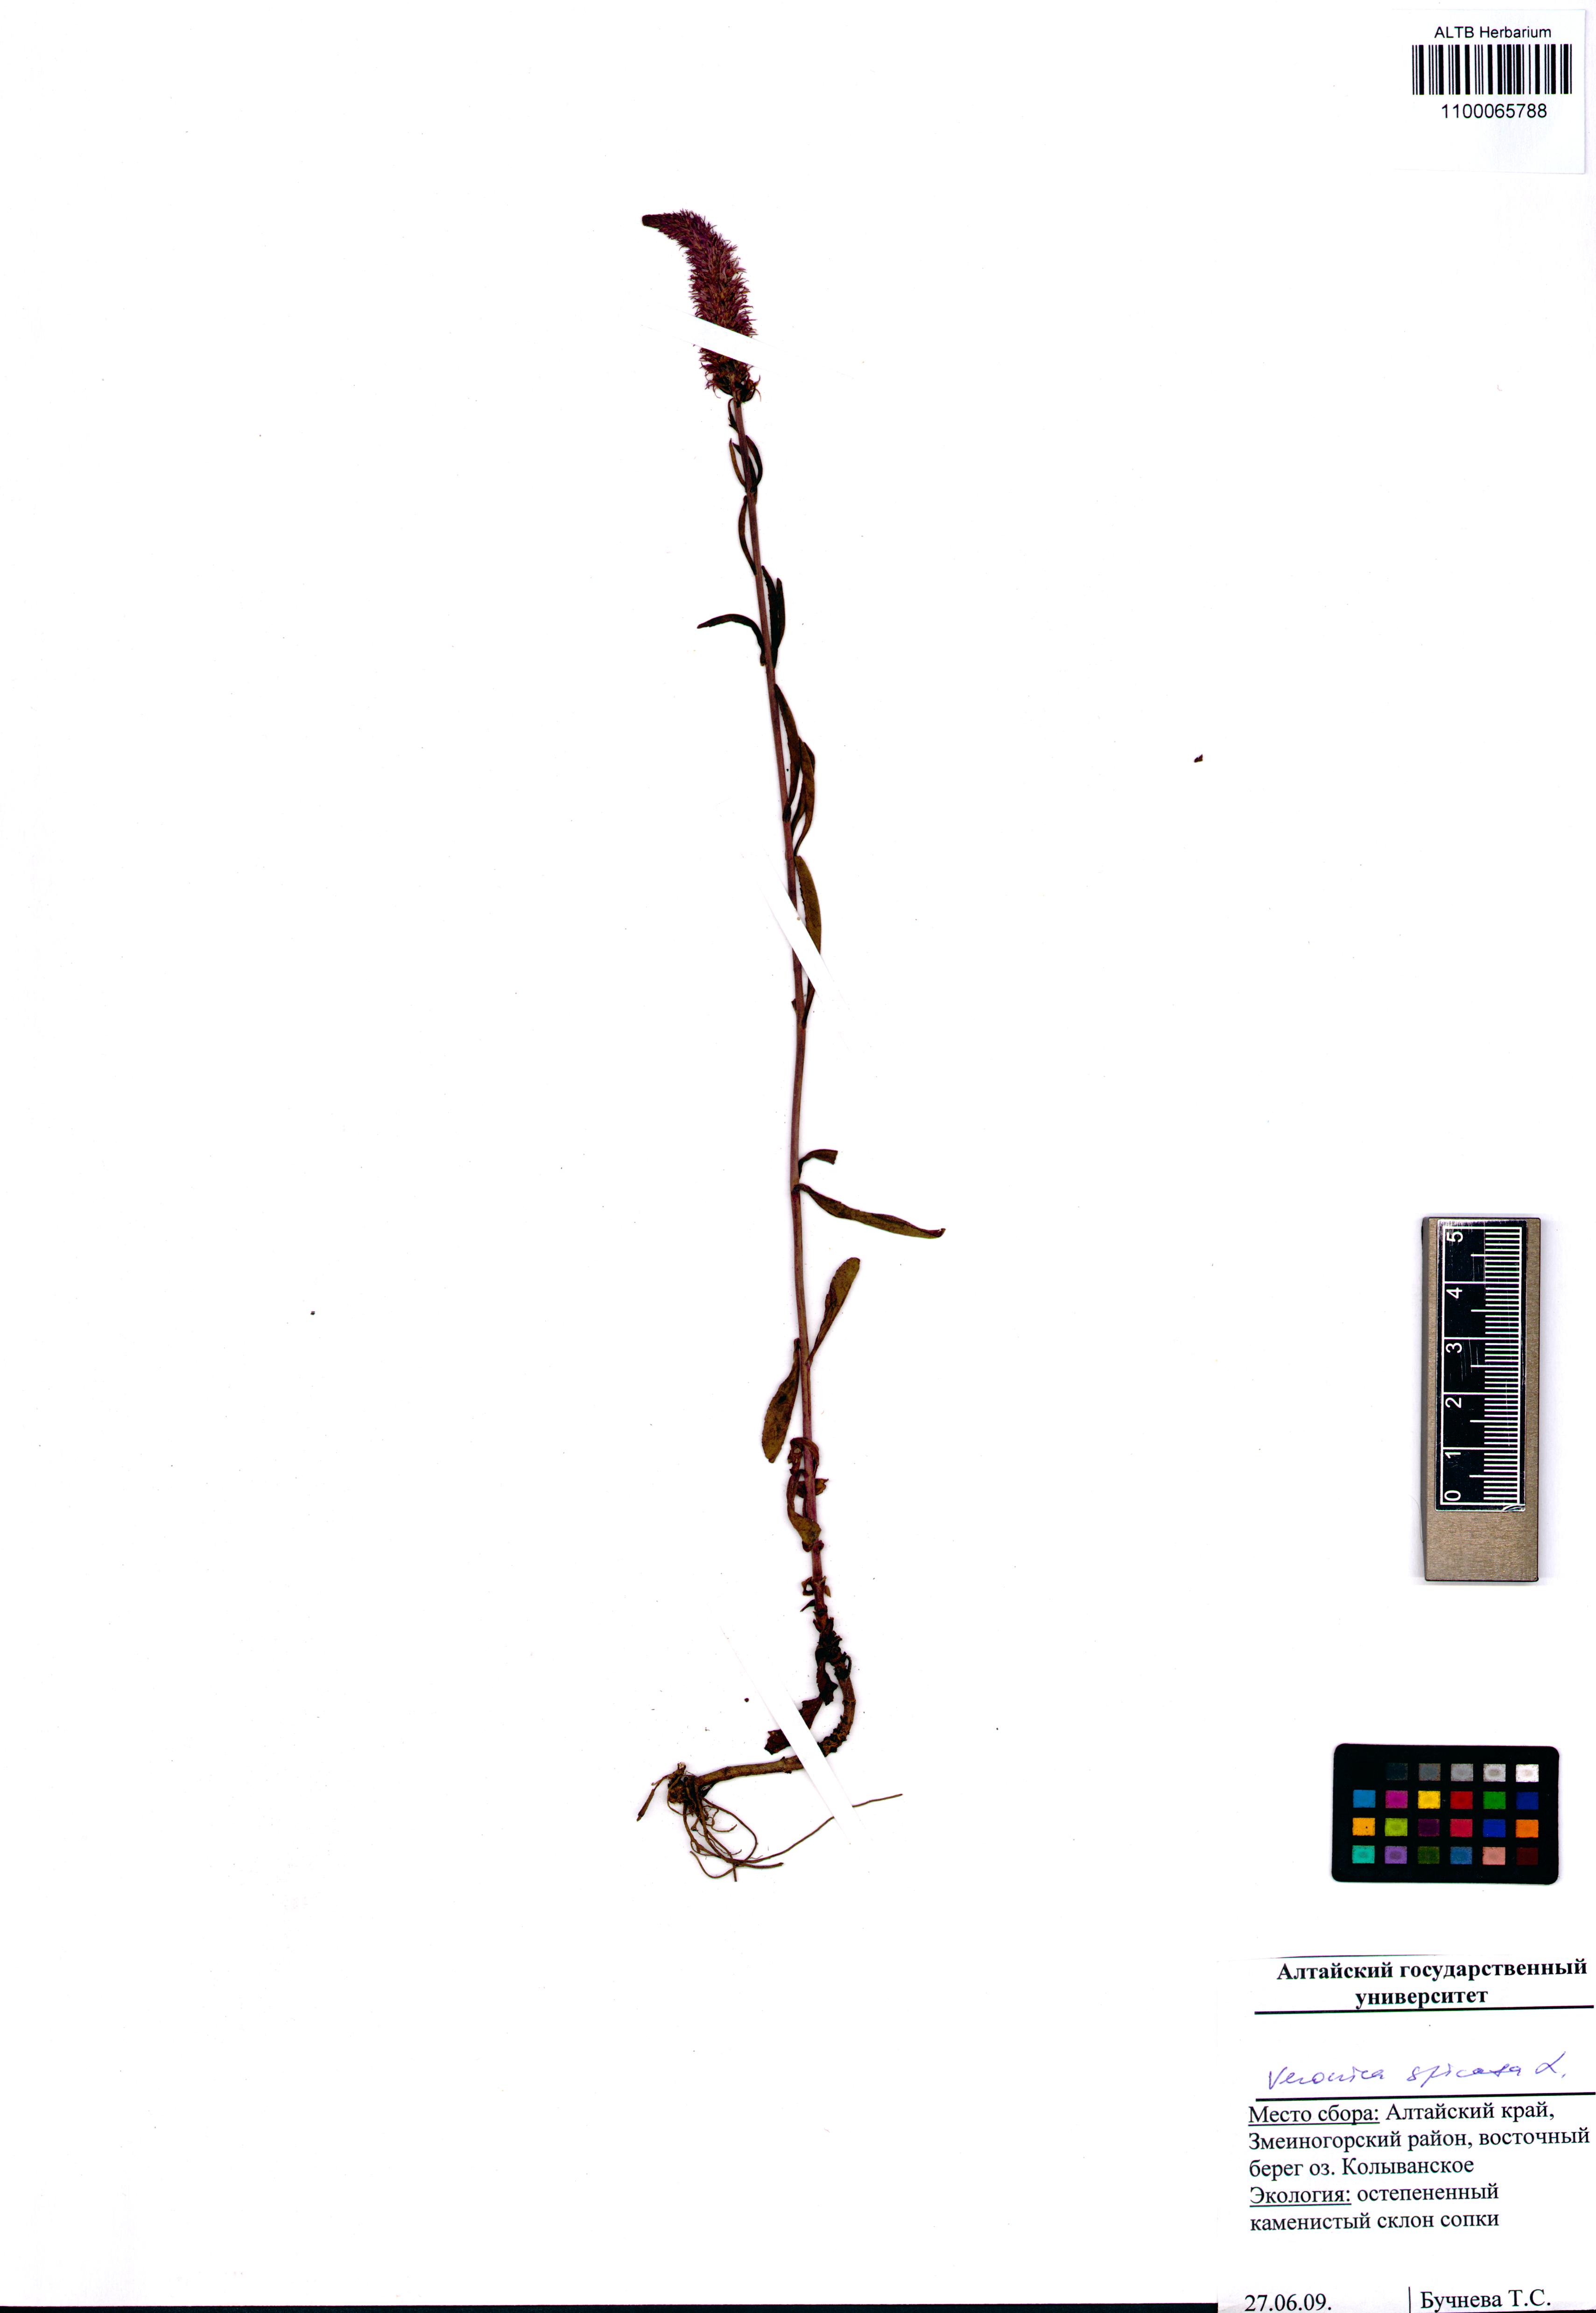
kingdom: Plantae
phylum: Tracheophyta
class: Magnoliopsida
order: Lamiales
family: Plantaginaceae
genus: Veronica
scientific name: Veronica spicata
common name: Spiked speedwell
